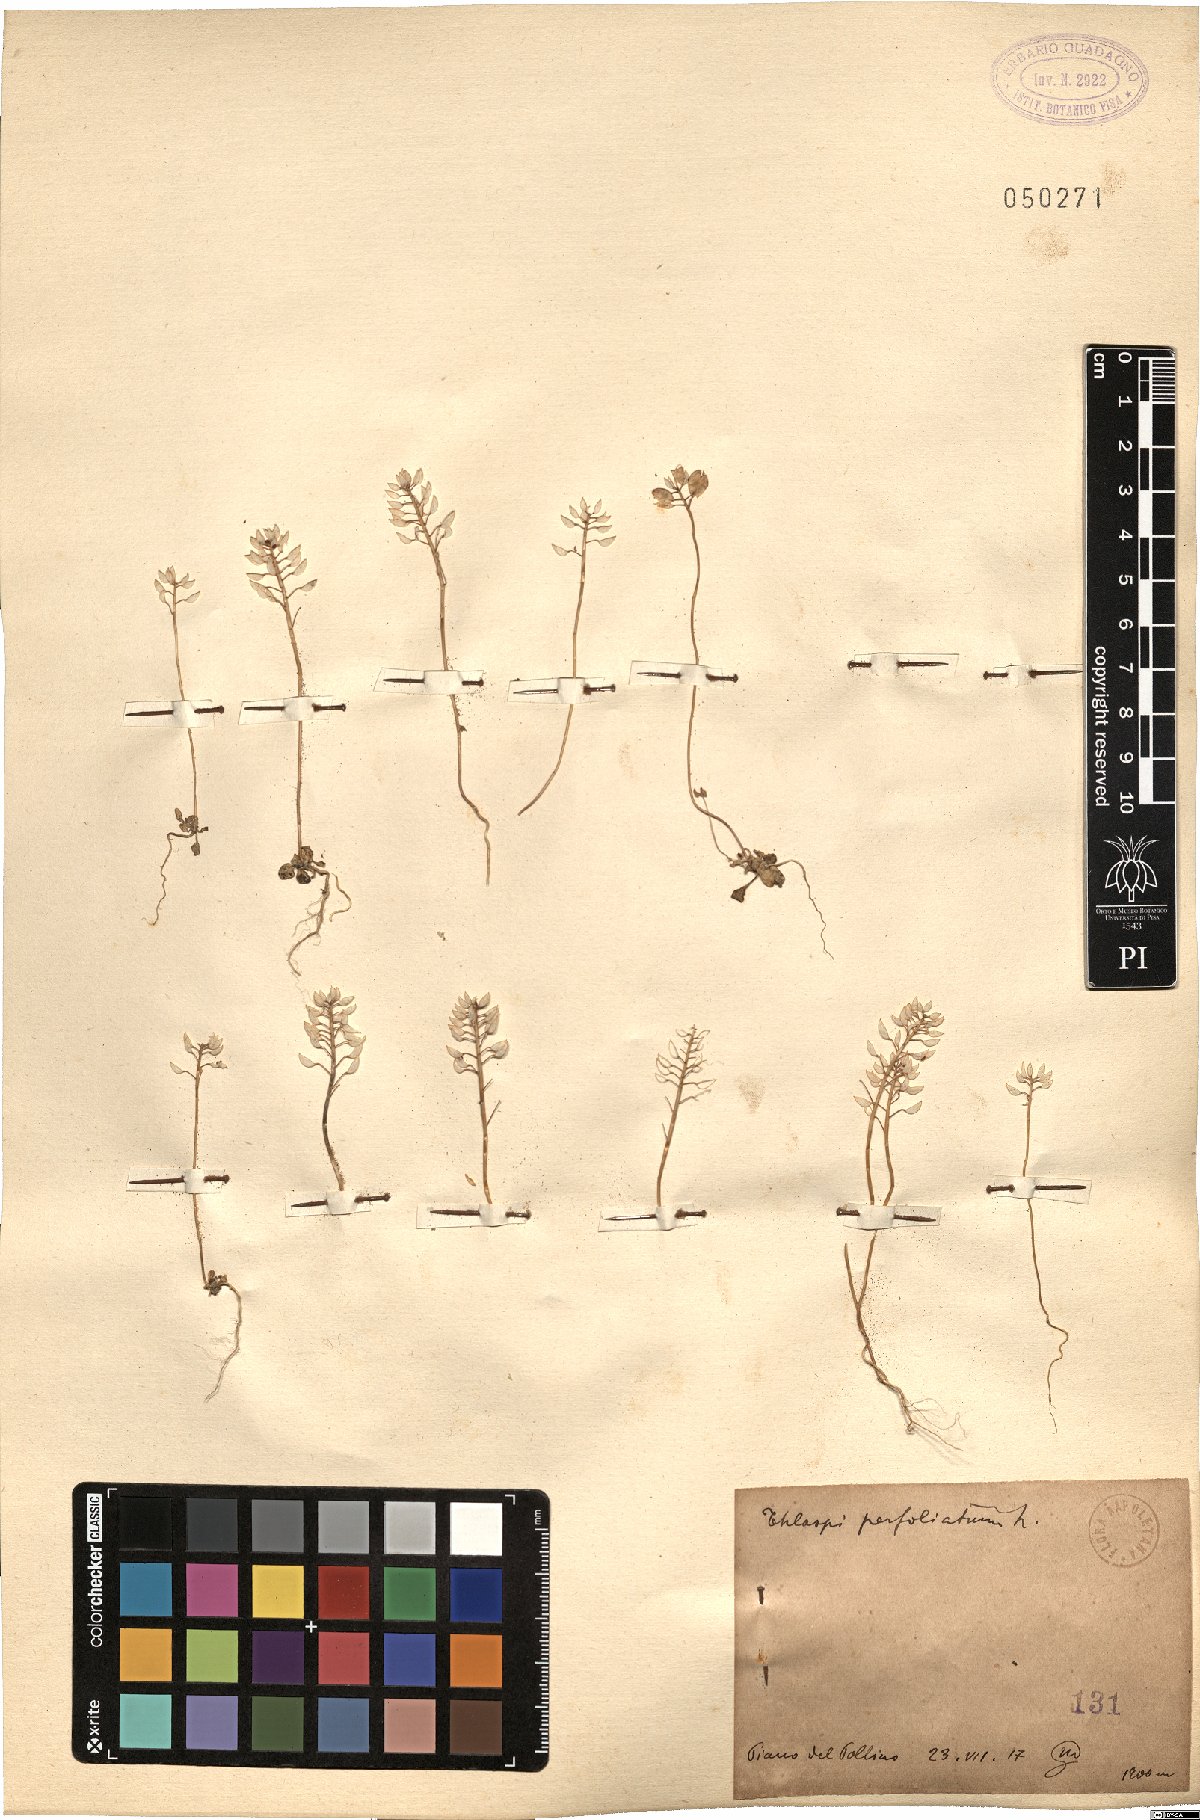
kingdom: Plantae
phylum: Tracheophyta
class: Magnoliopsida
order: Brassicales
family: Brassicaceae
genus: Noccaea
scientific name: Noccaea perfoliata
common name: Perfoliate pennycress
